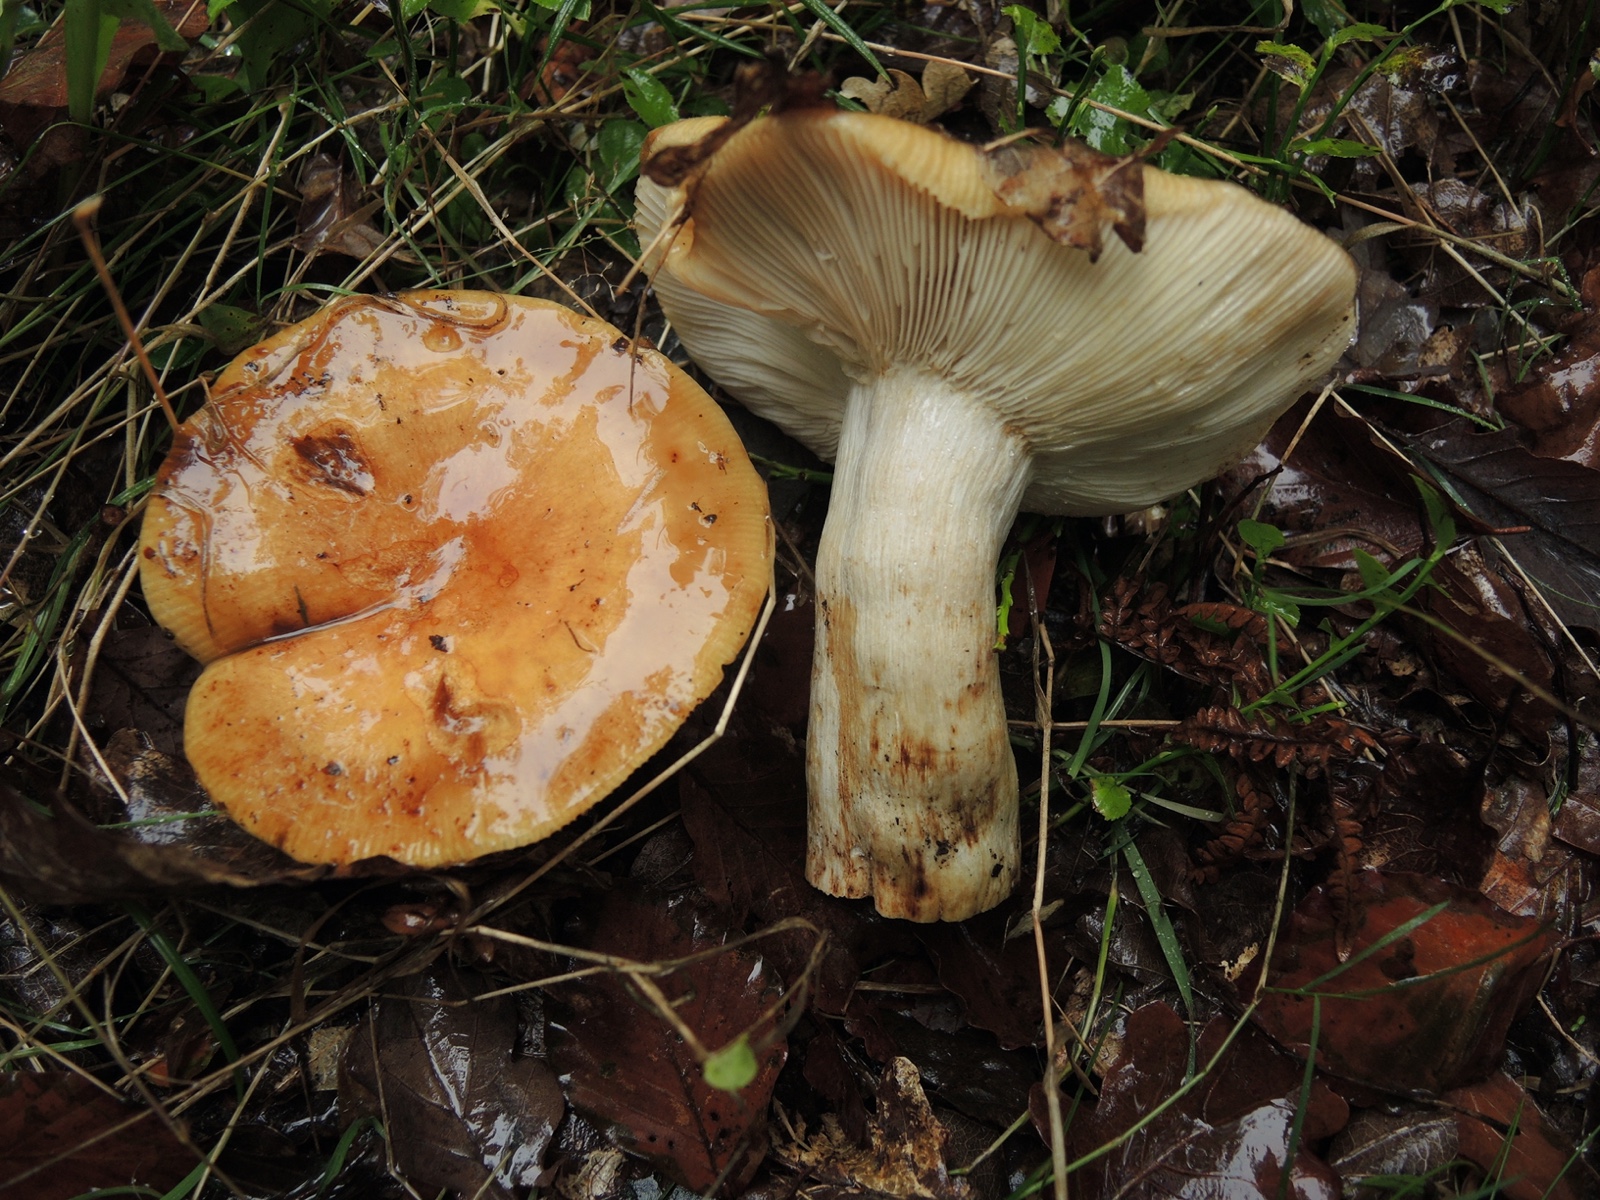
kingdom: Fungi
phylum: Basidiomycota
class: Agaricomycetes
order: Russulales
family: Russulaceae
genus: Russula
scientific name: Russula grata
